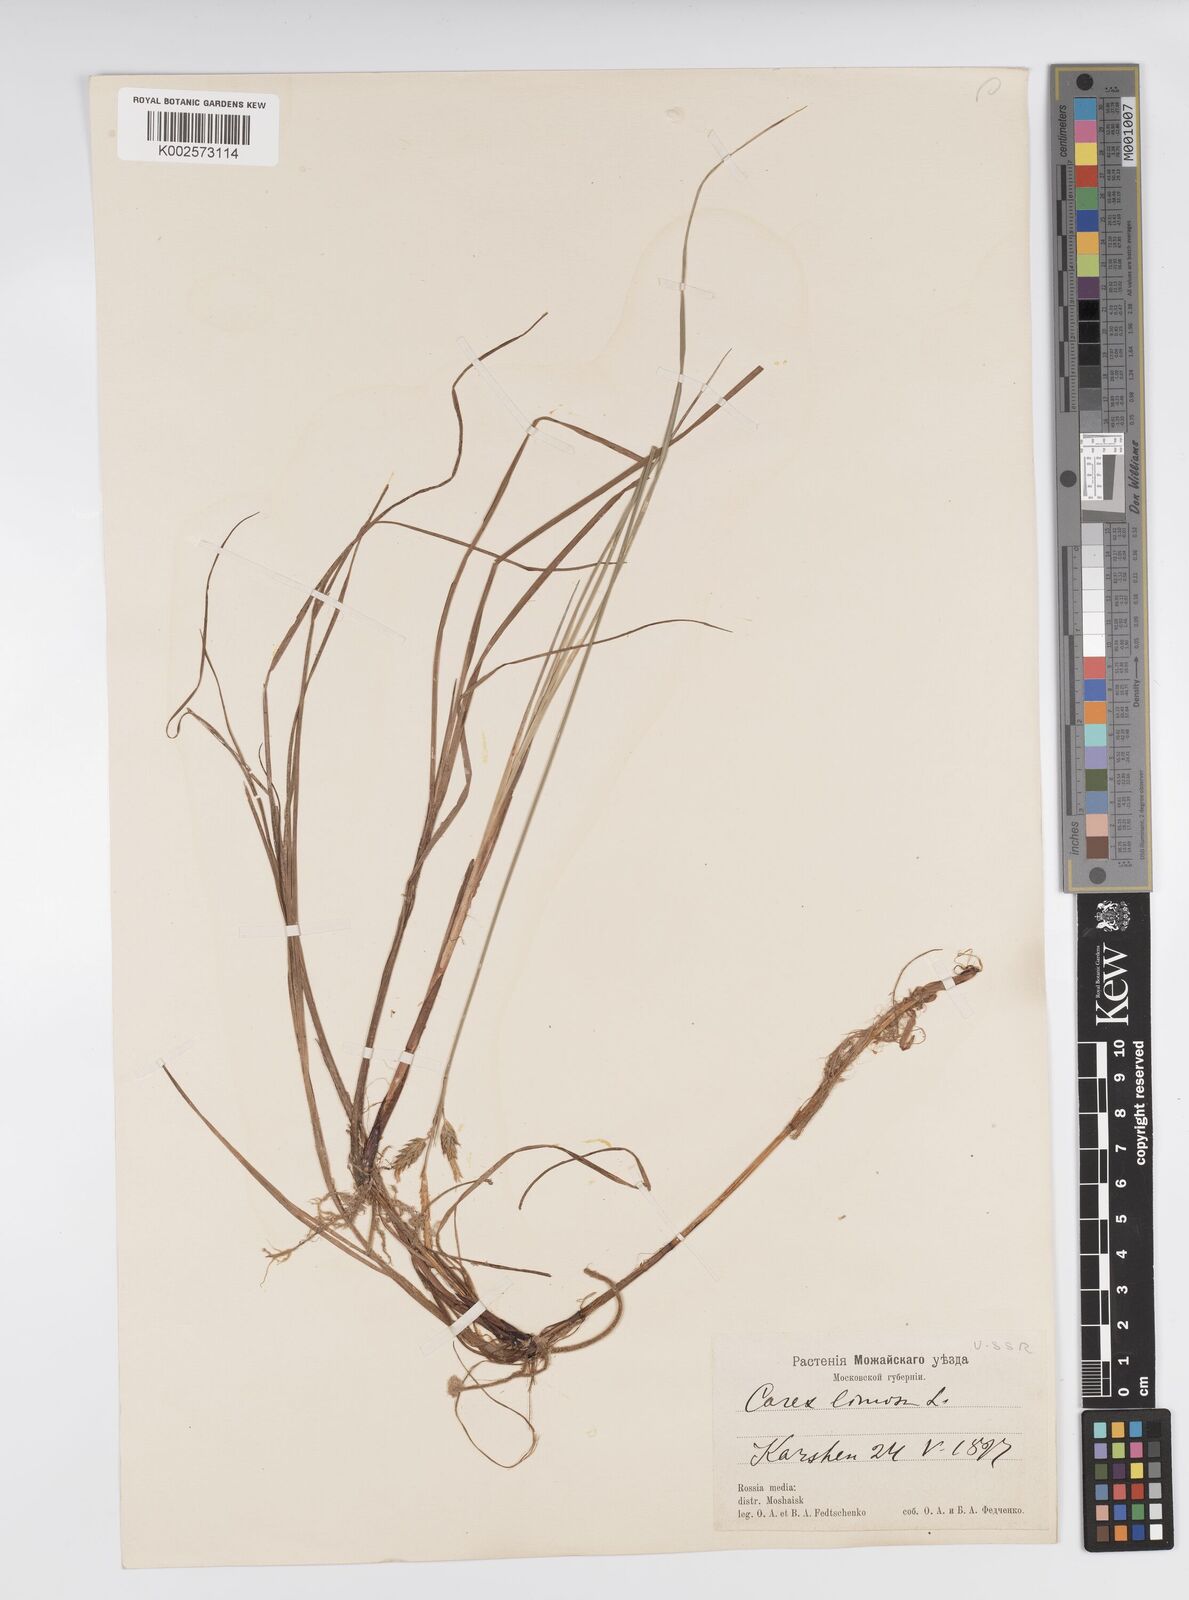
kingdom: Plantae
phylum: Tracheophyta
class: Liliopsida
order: Poales
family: Cyperaceae
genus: Carex
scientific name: Carex limosa
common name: Bog sedge
